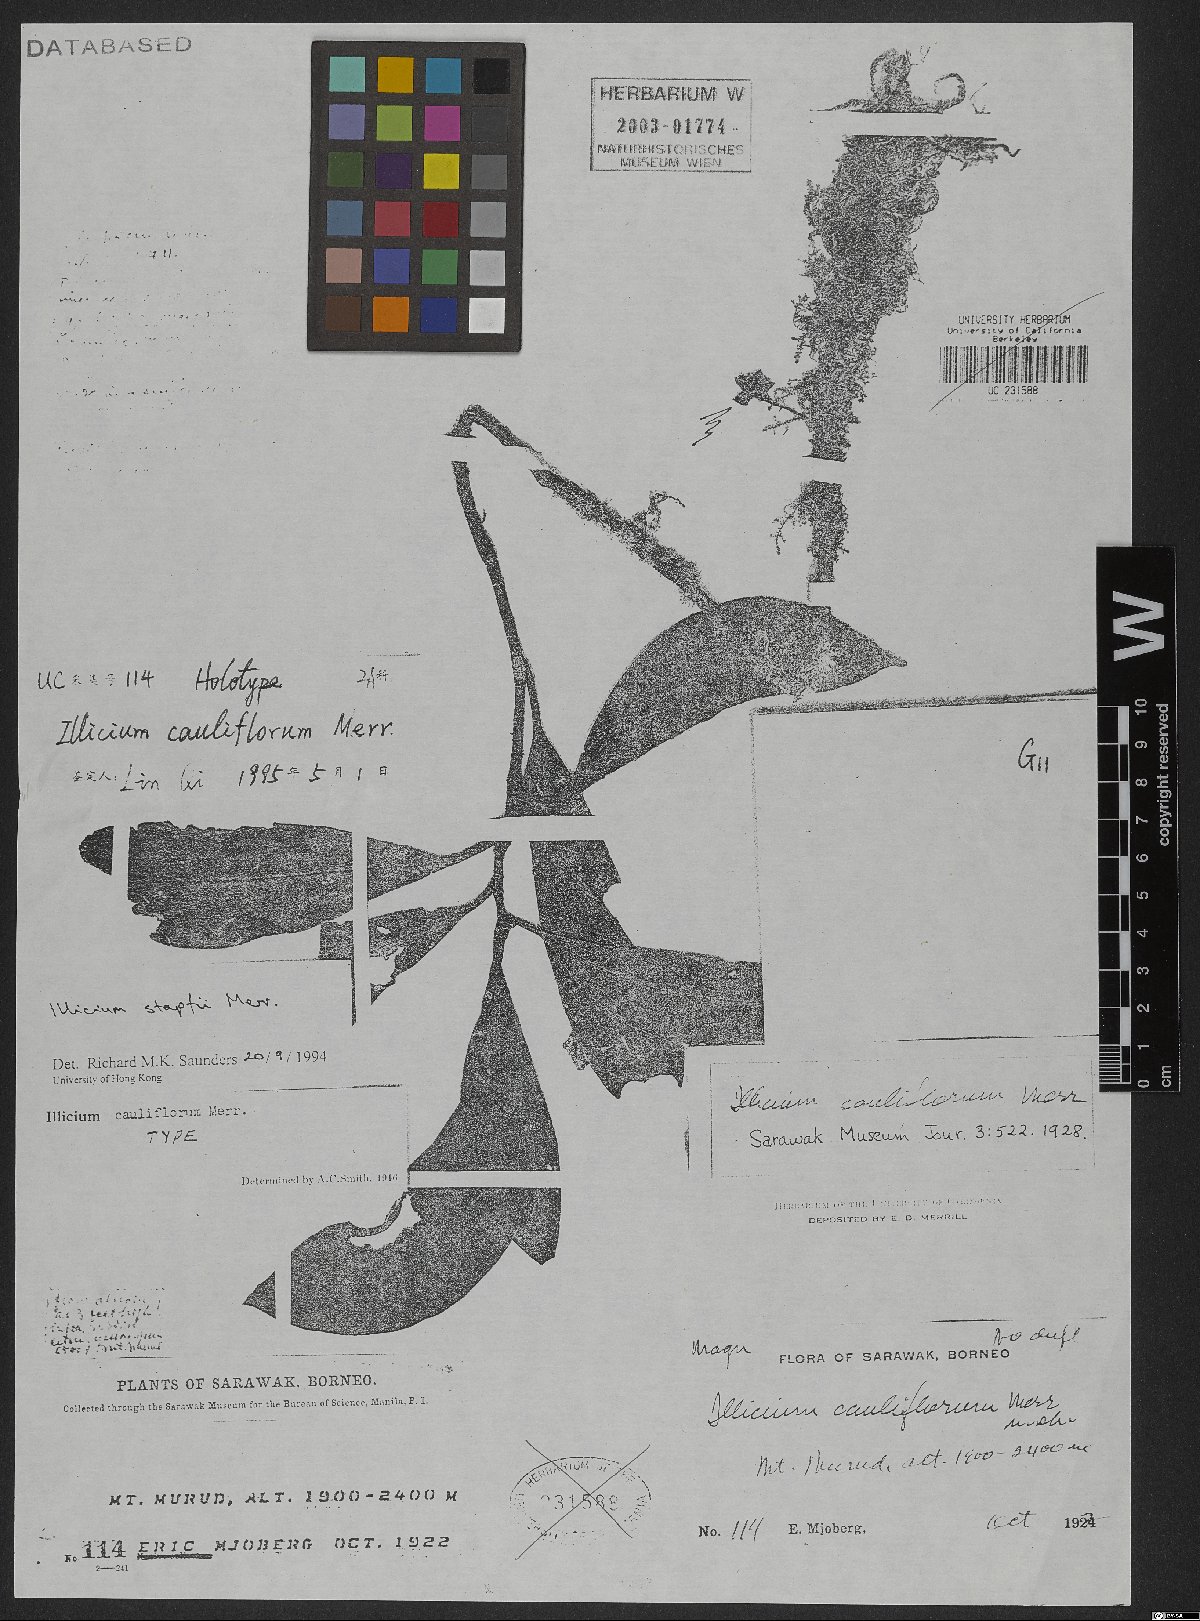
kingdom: Plantae
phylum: Tracheophyta
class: Magnoliopsida
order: Austrobaileyales
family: Schisandraceae
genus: Illicium
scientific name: Illicium stapfii
